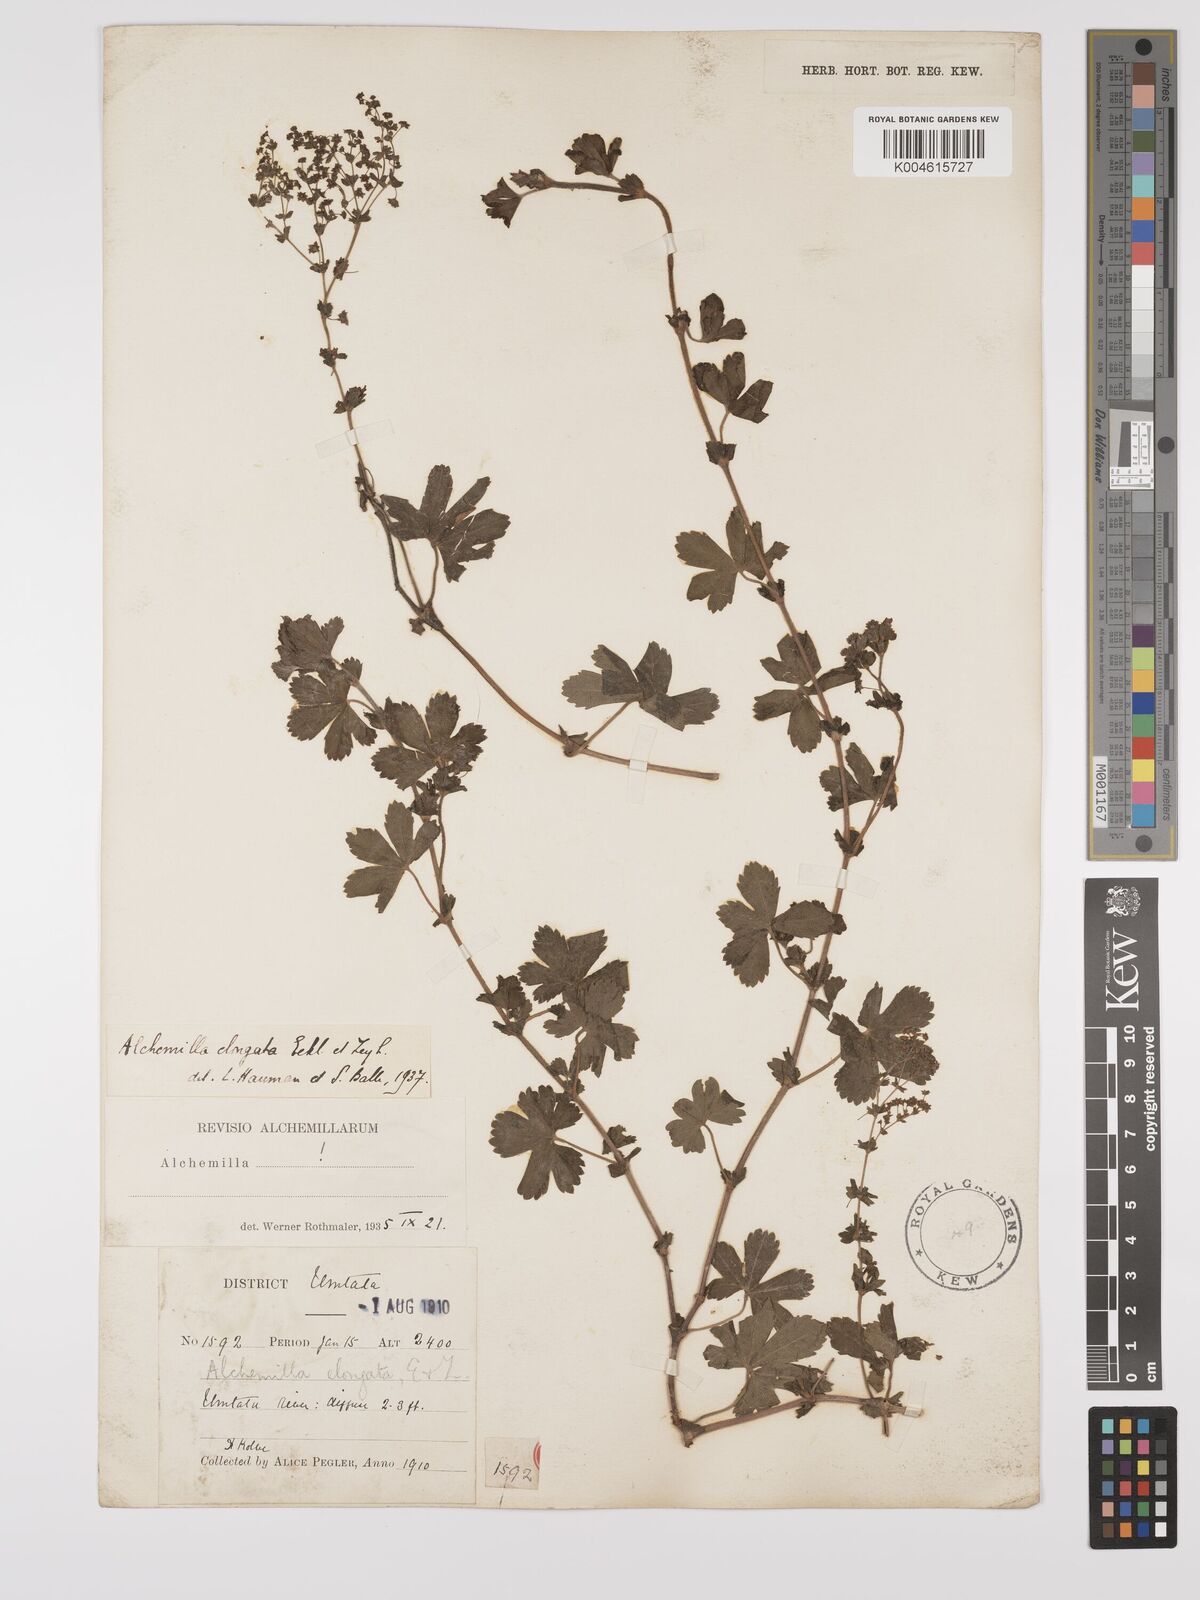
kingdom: Plantae
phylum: Tracheophyta
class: Magnoliopsida
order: Rosales
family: Rosaceae
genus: Alchemilla
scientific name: Alchemilla elongata
